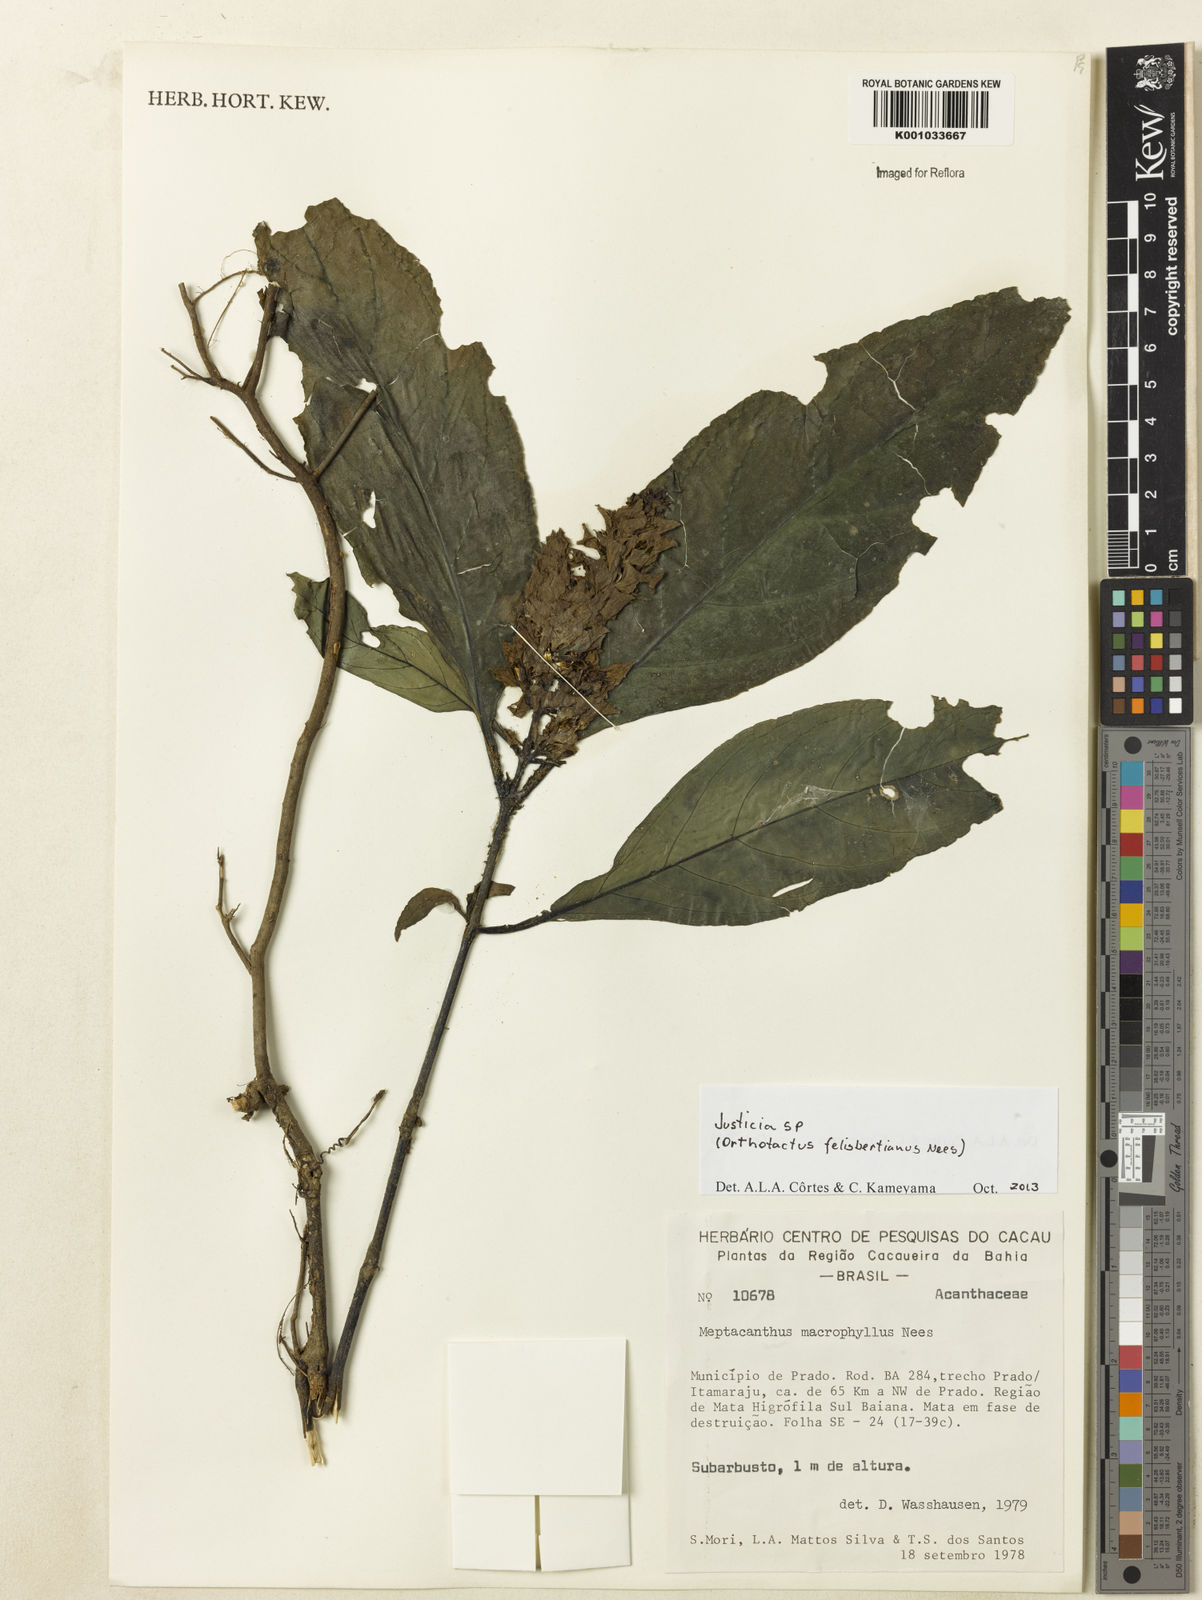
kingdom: Plantae
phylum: Tracheophyta
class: Magnoliopsida
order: Lamiales
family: Acanthaceae
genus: Justicia
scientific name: Justicia
